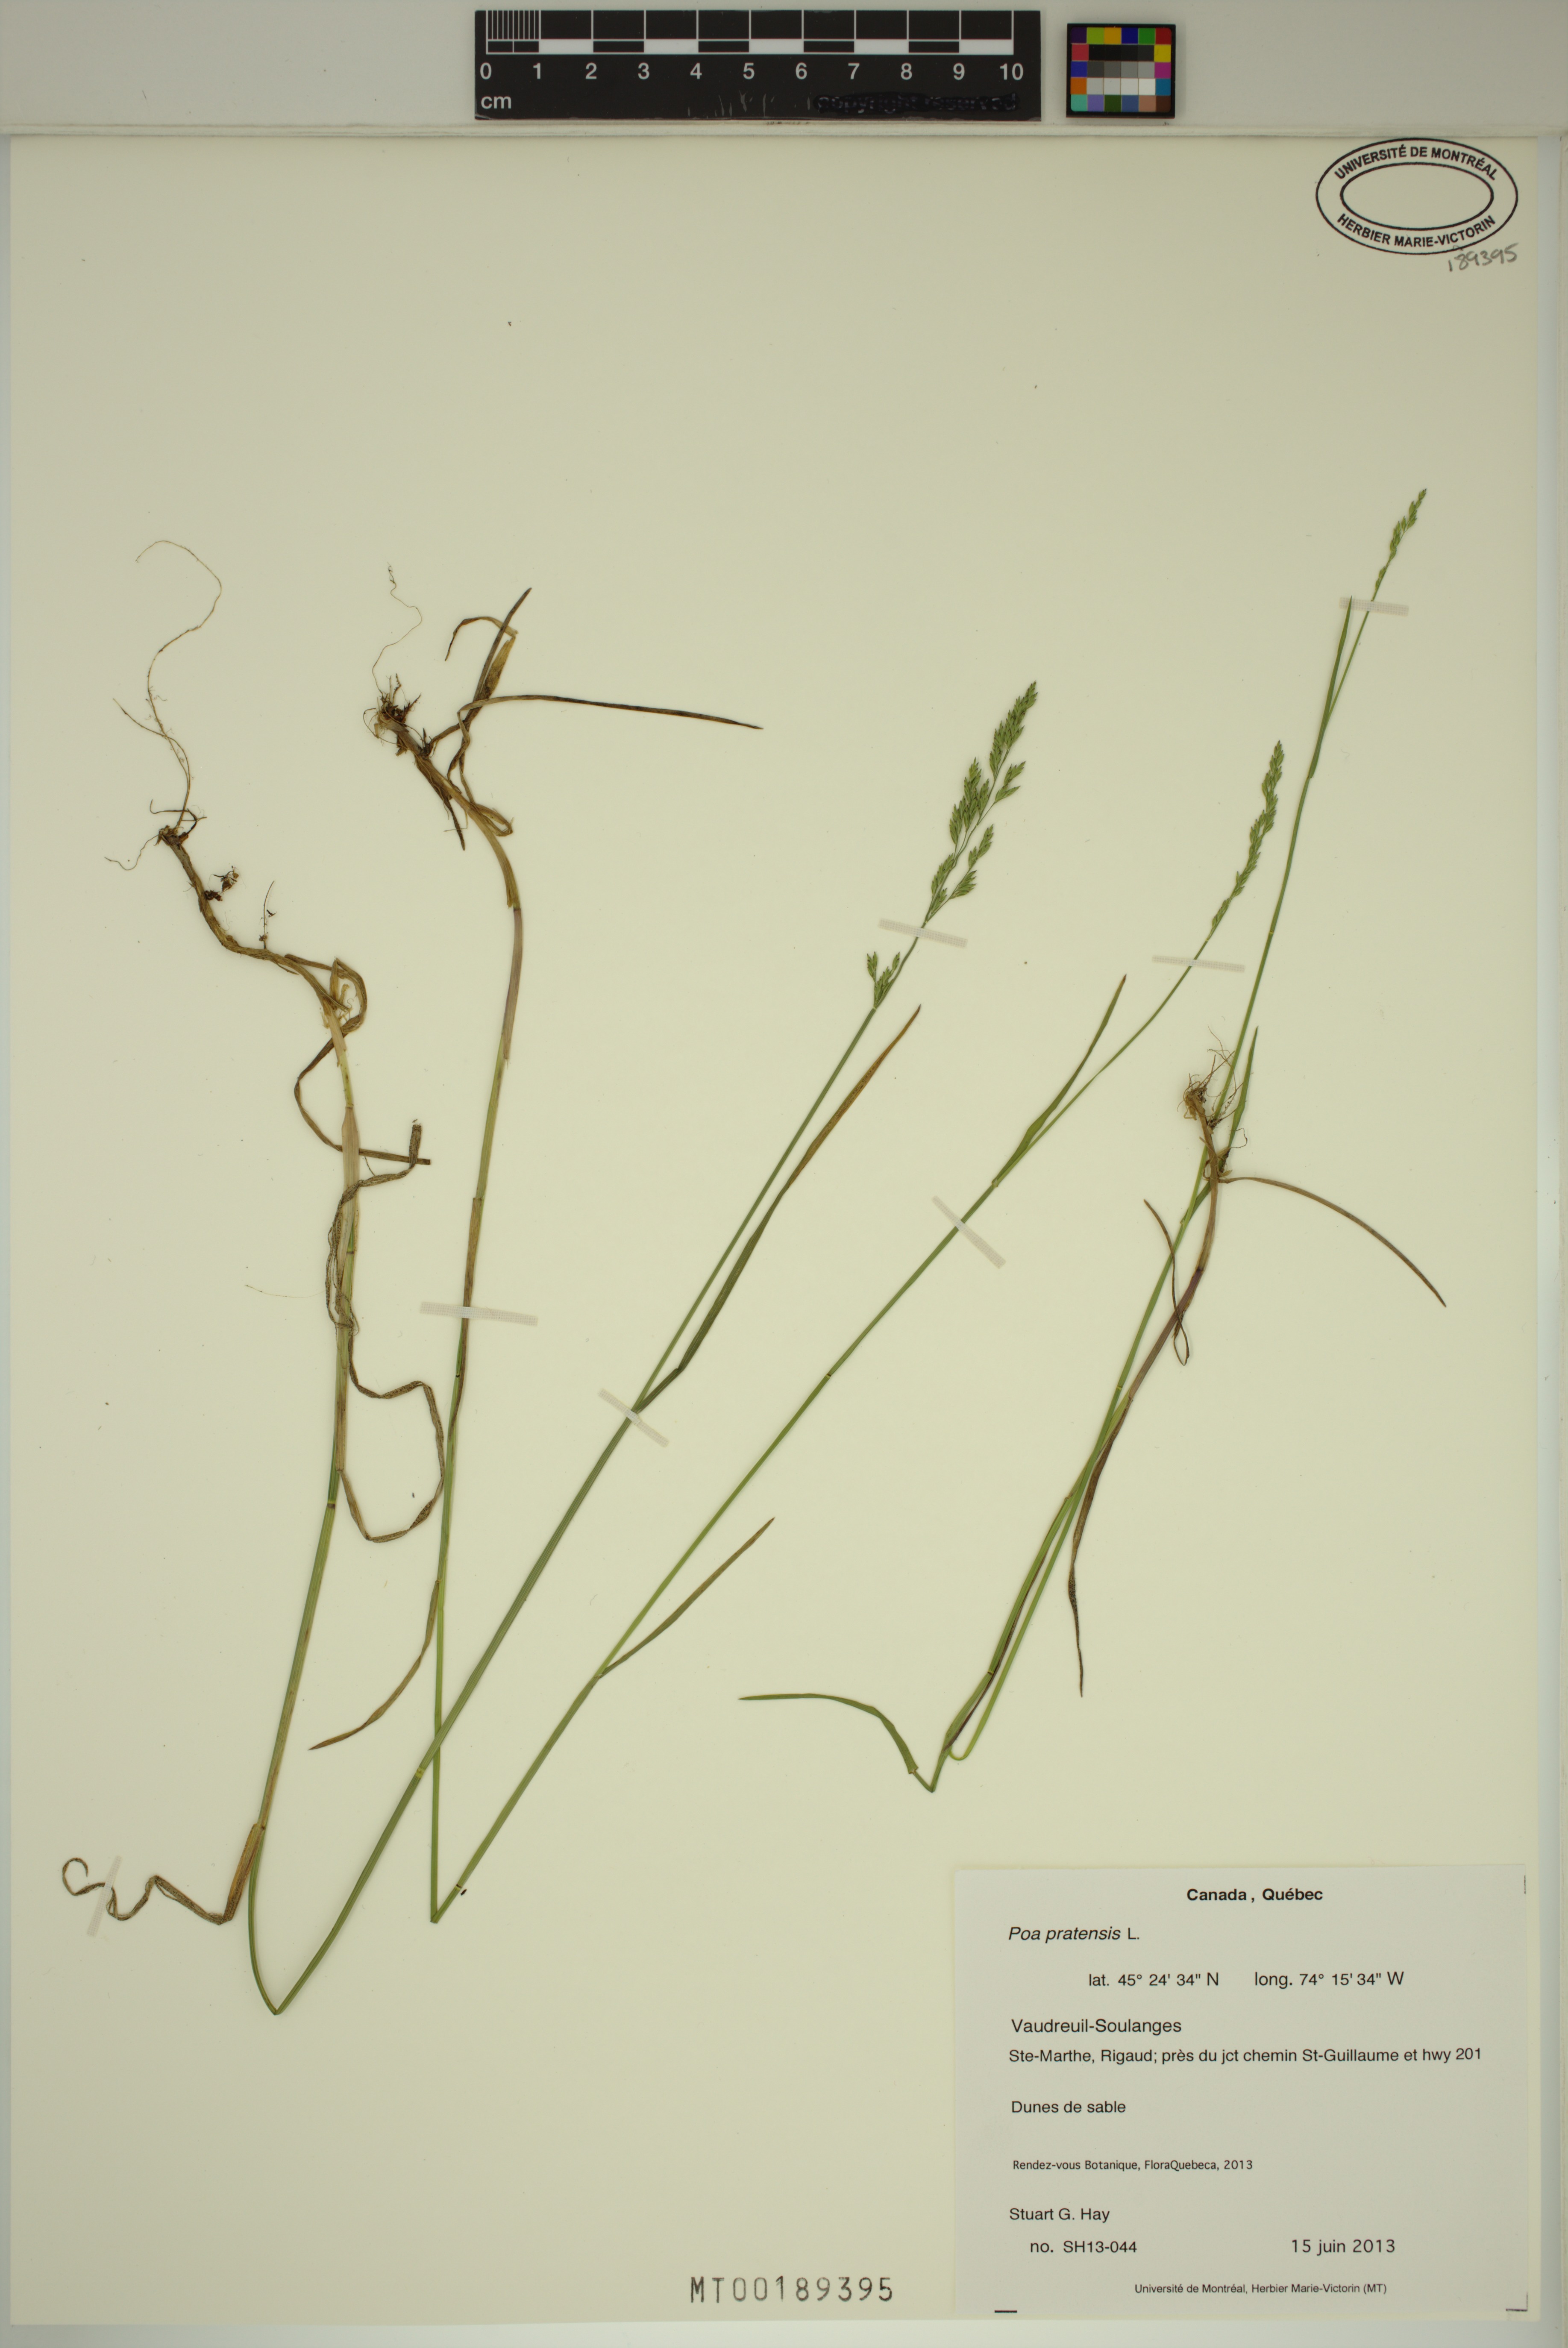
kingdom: Plantae
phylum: Tracheophyta
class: Liliopsida
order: Poales
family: Poaceae
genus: Poa
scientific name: Poa pratensis
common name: Kentucky bluegrass
